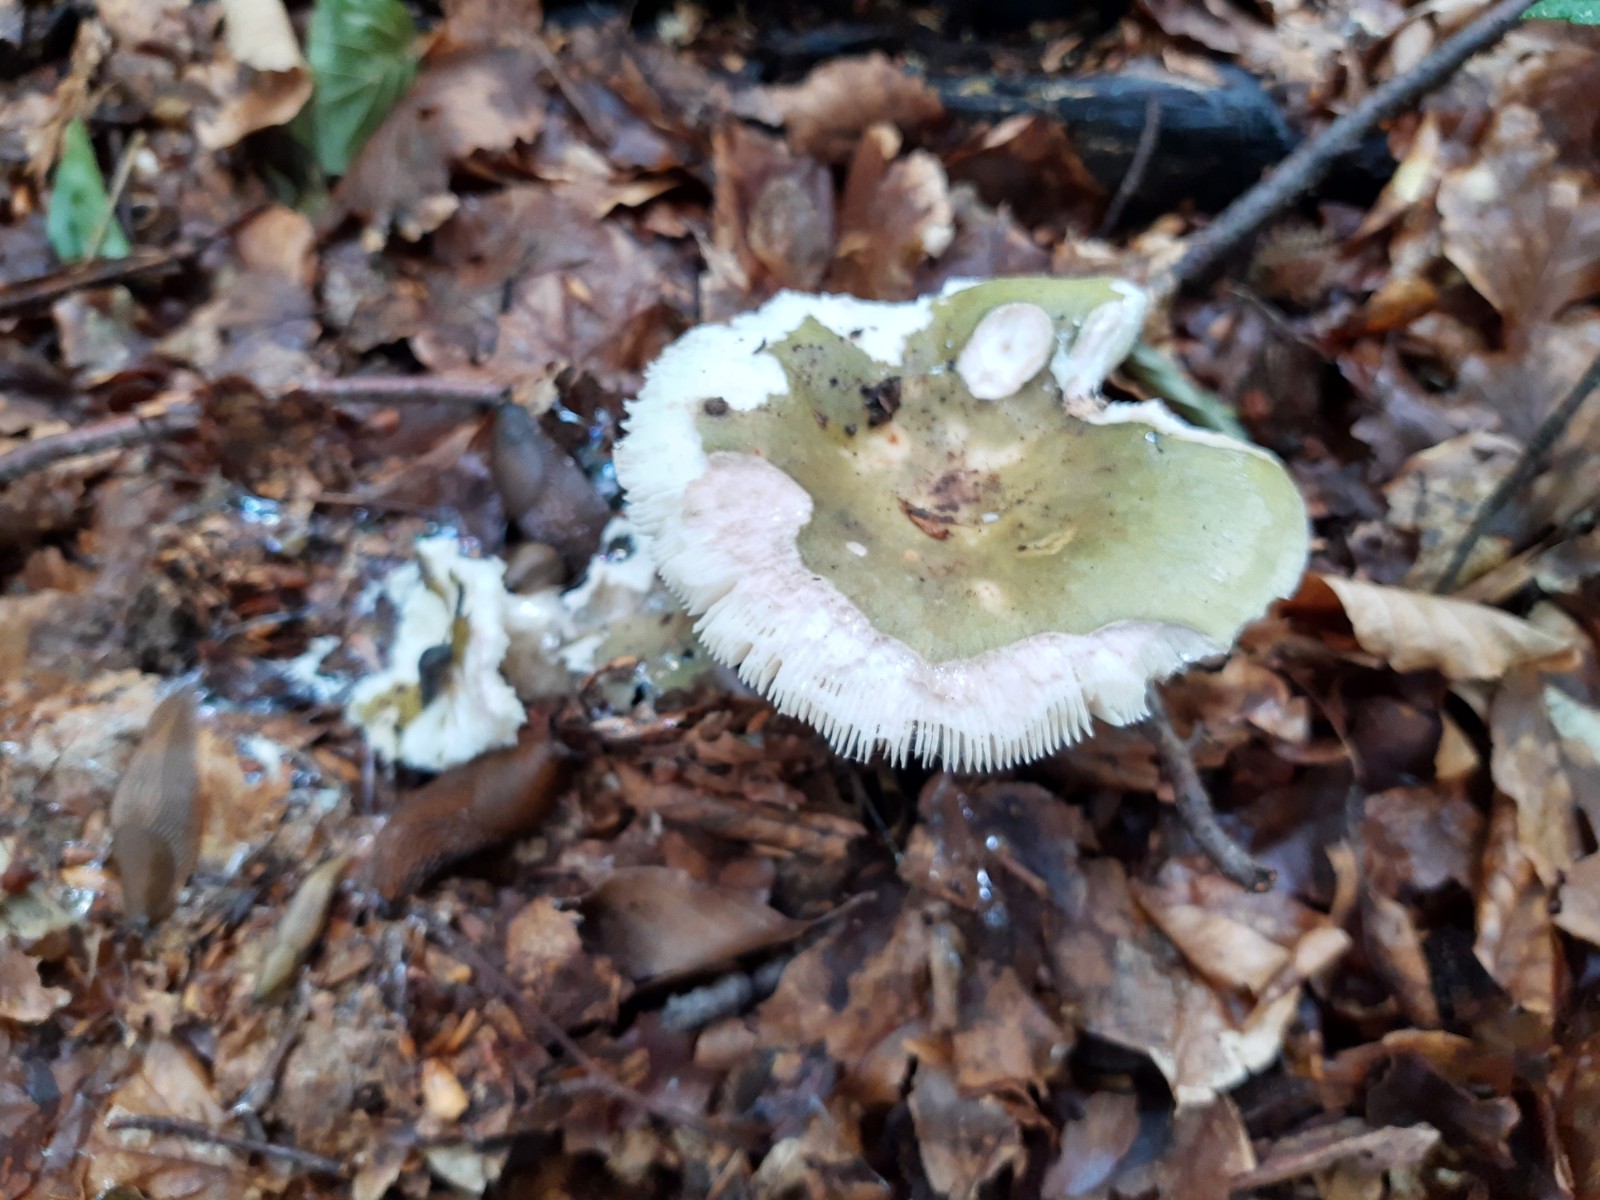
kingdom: Fungi
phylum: Basidiomycota
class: Agaricomycetes
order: Russulales
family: Russulaceae
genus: Russula
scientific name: Russula
